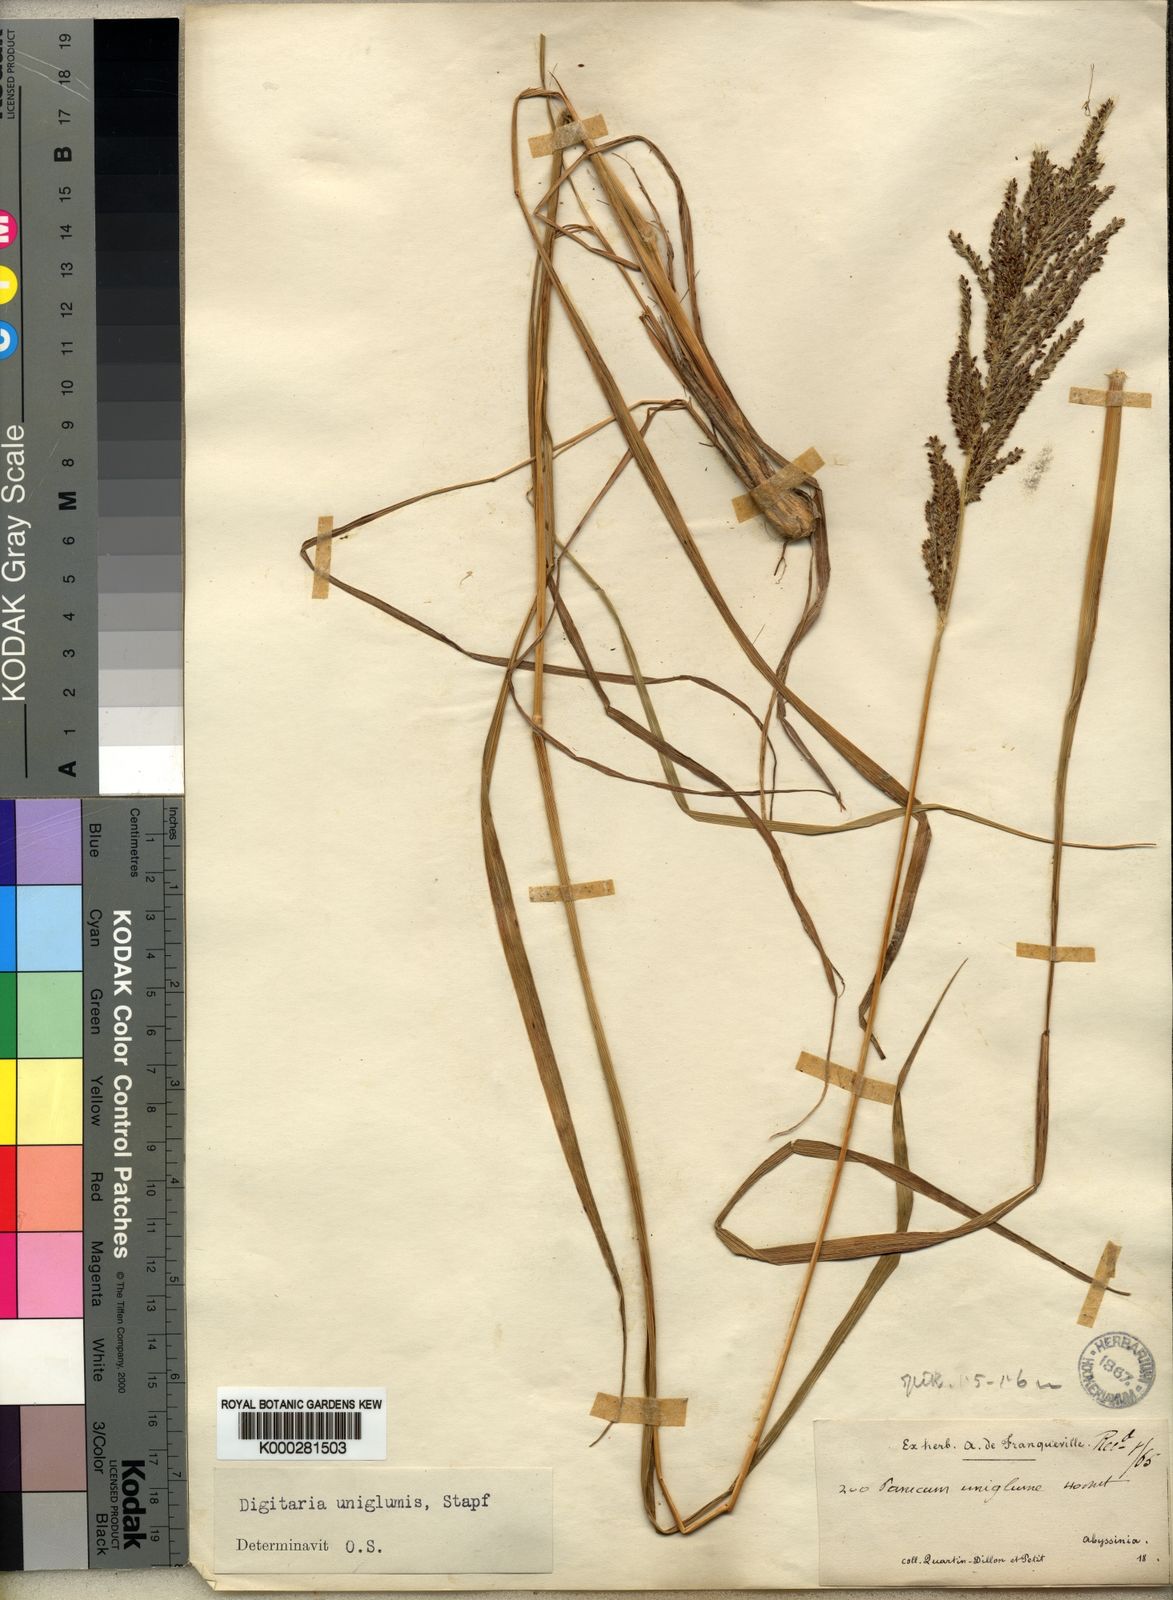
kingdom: Plantae
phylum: Tracheophyta
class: Liliopsida
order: Poales
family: Poaceae
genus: Digitaria
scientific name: Digitaria diagonalis
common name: Brown-seed finger grass
